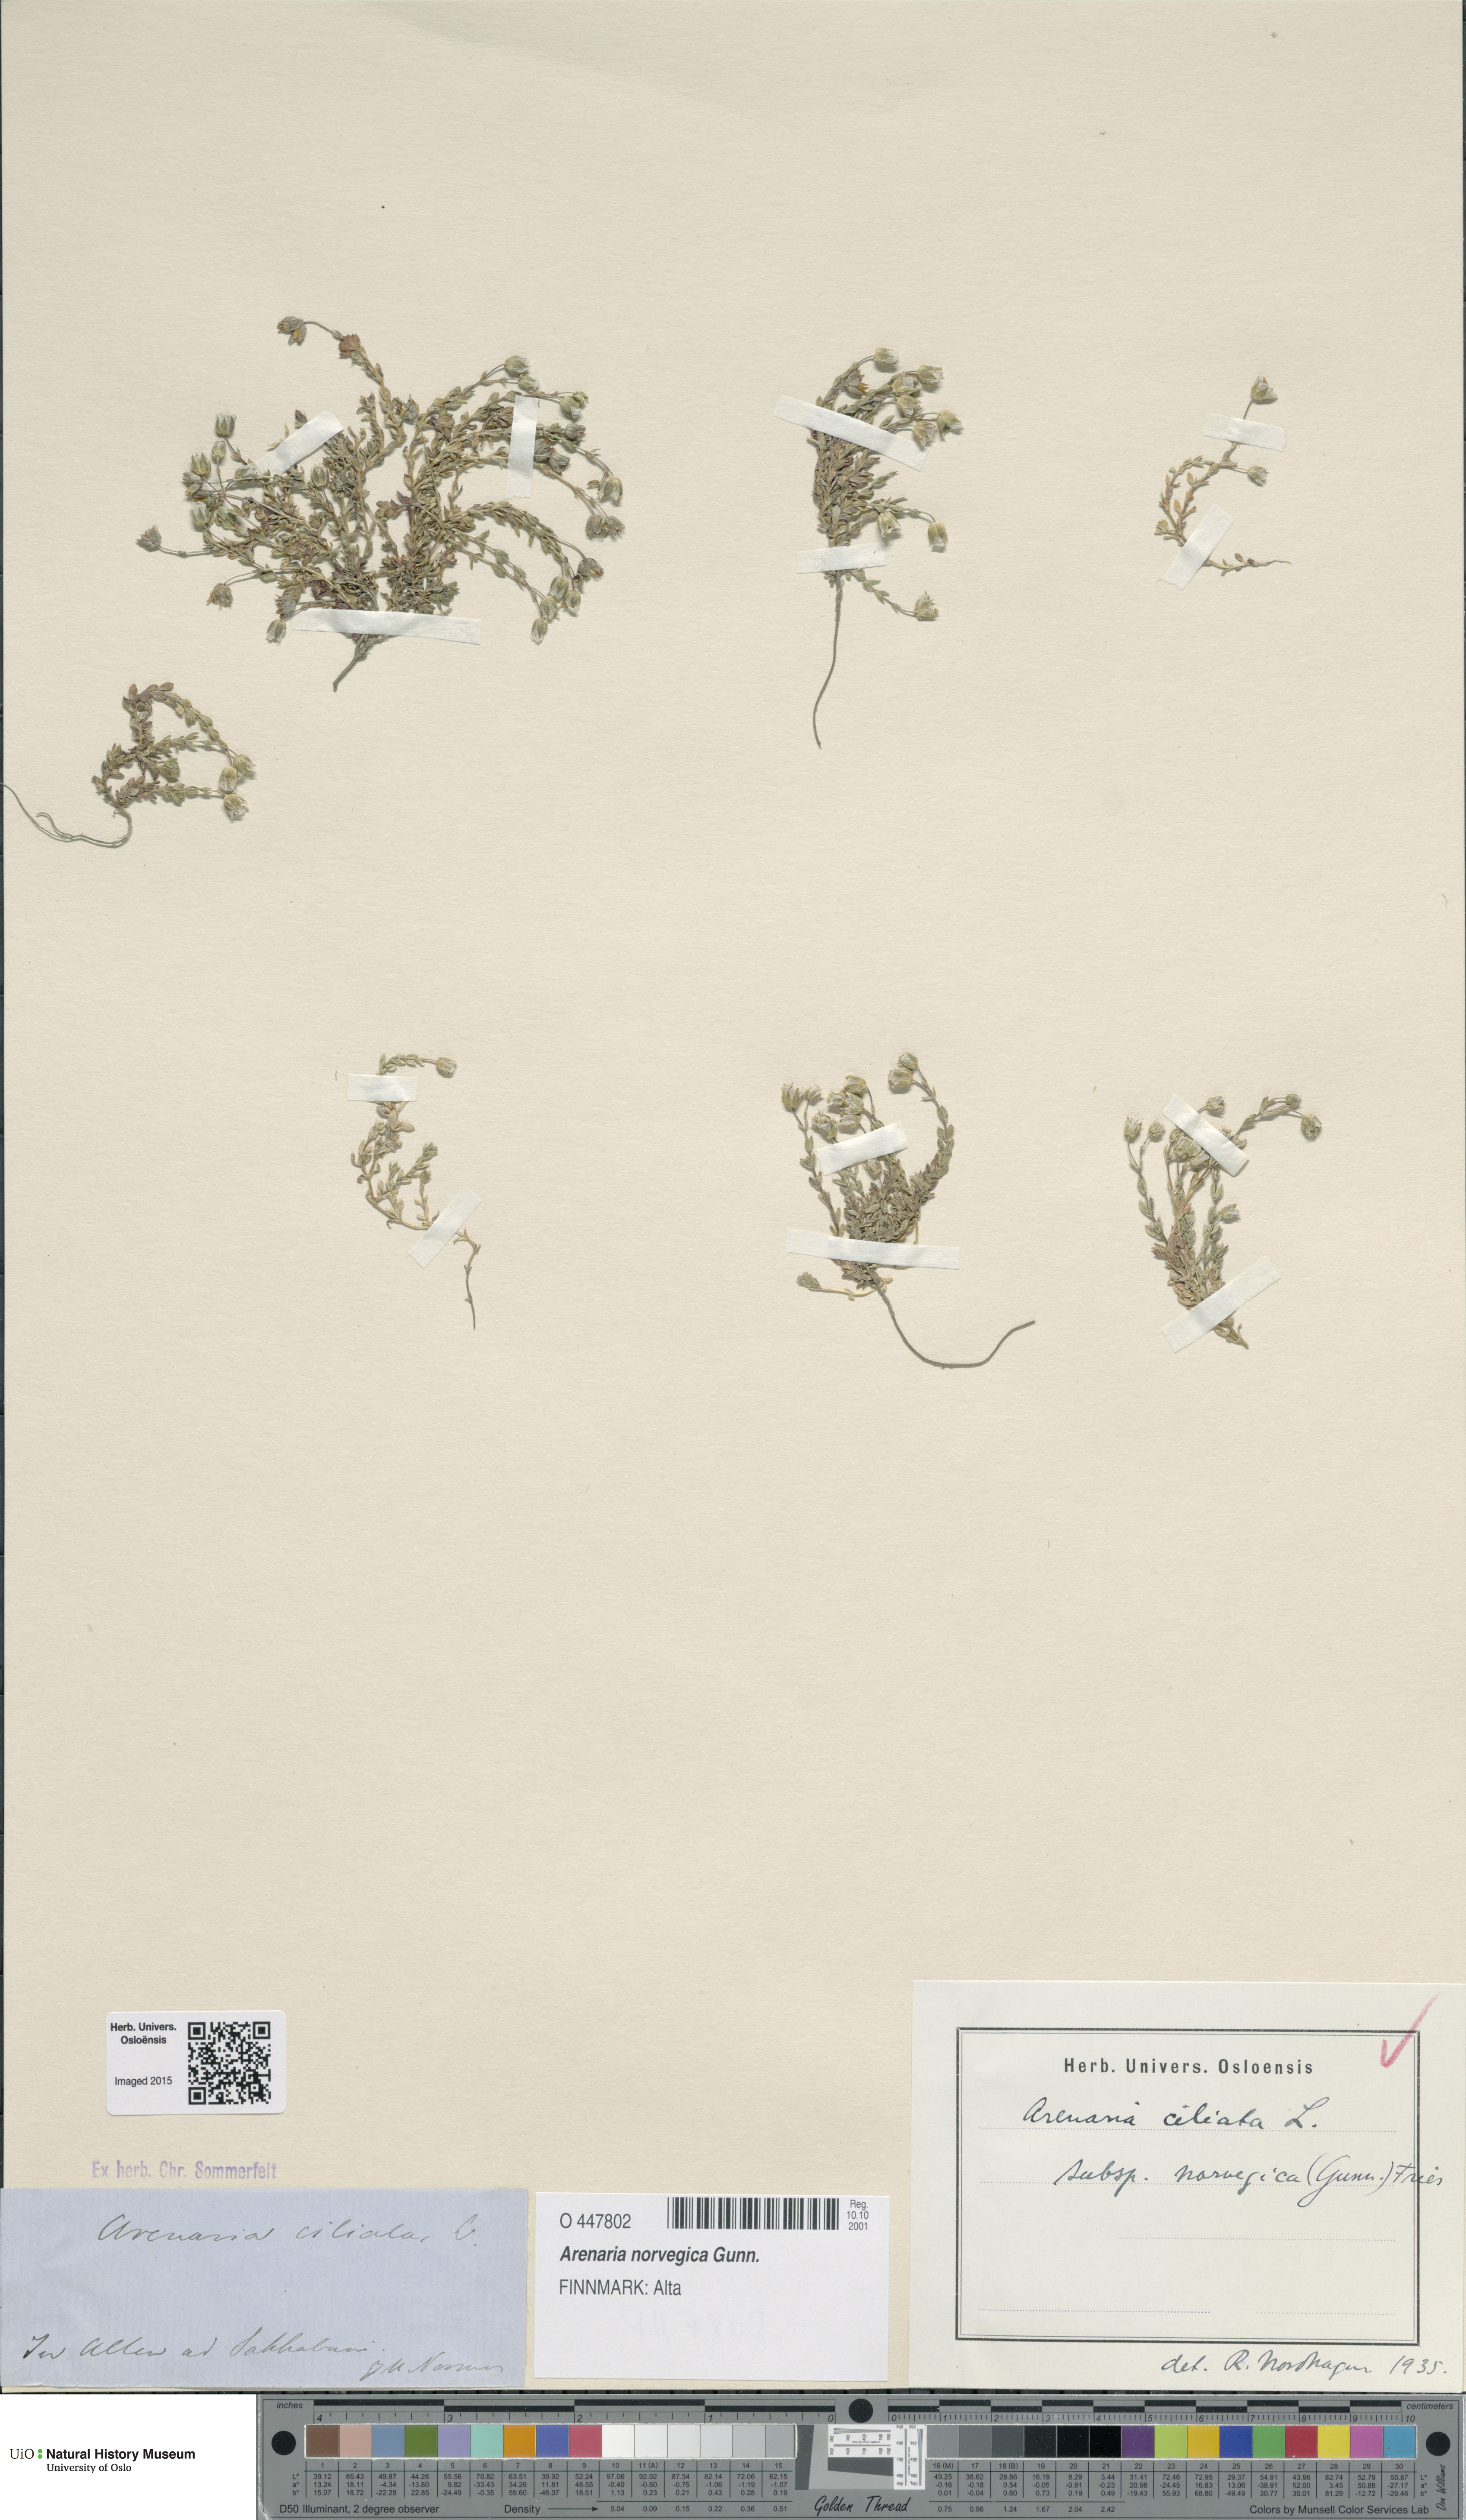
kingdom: Plantae
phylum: Tracheophyta
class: Magnoliopsida
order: Caryophyllales
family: Caryophyllaceae
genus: Arenaria
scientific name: Arenaria norvegica
